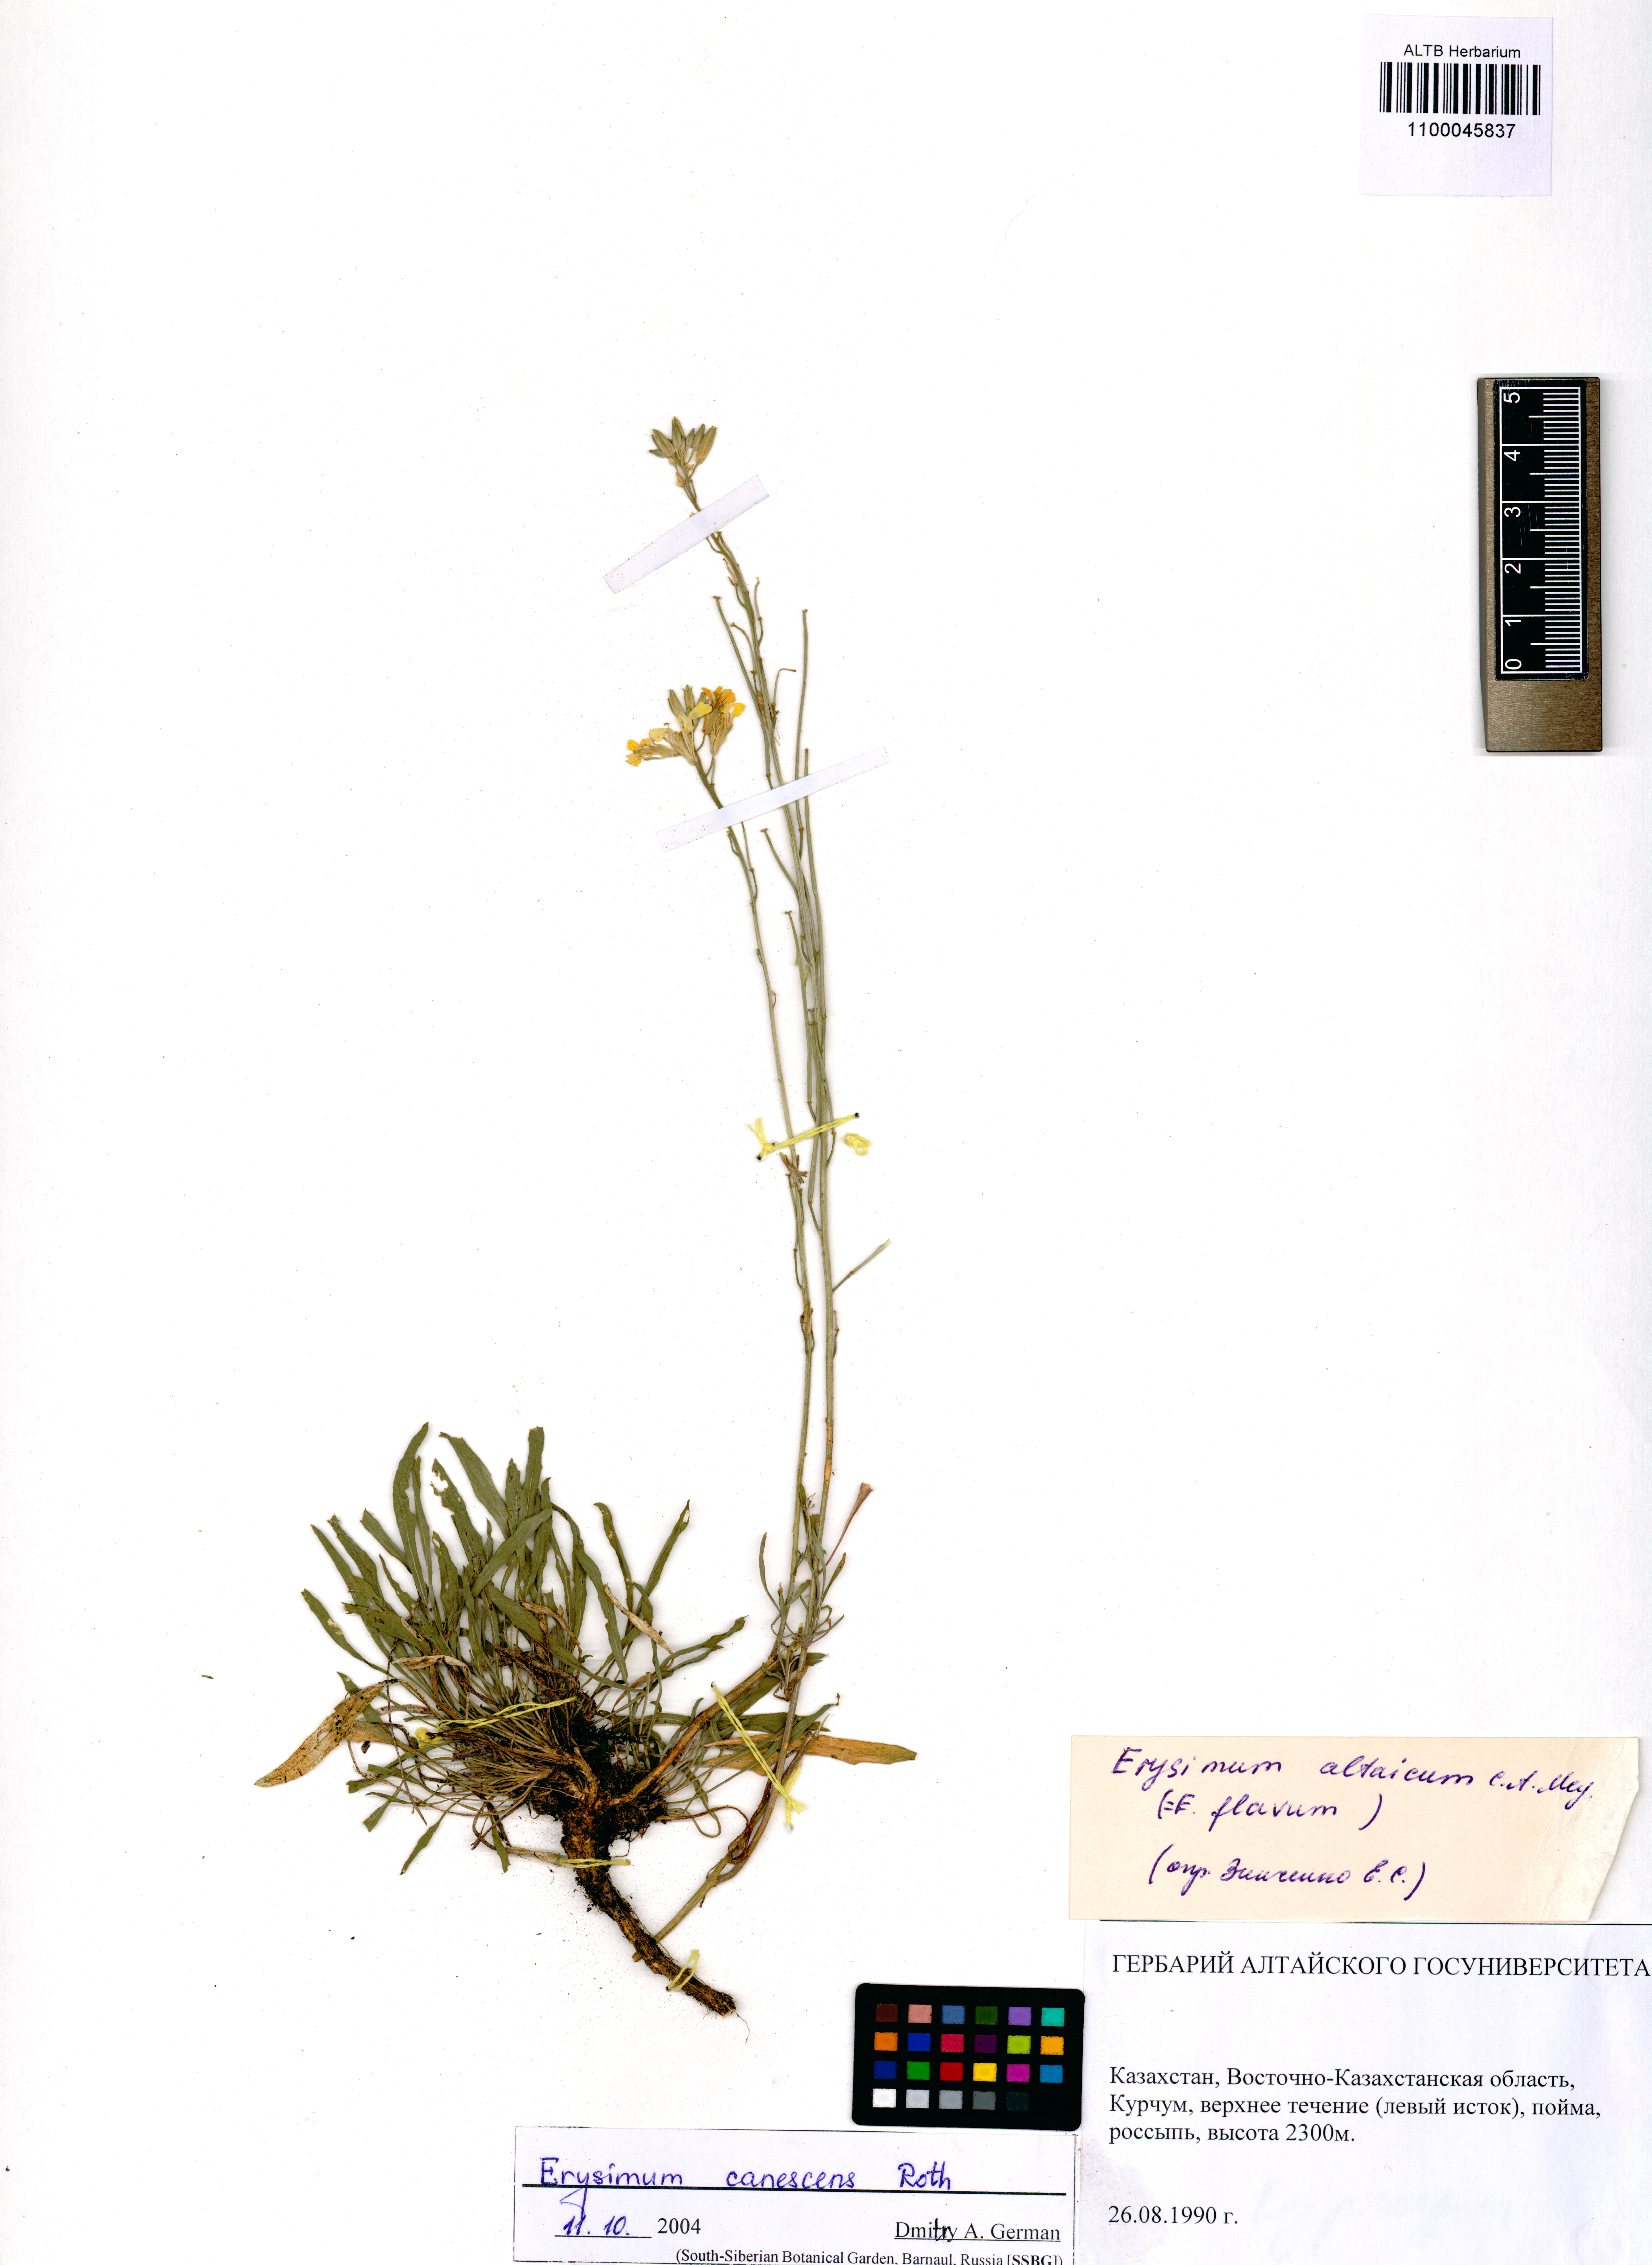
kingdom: Plantae
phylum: Tracheophyta
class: Magnoliopsida
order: Brassicales
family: Brassicaceae
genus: Erysimum
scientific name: Erysimum canescens
